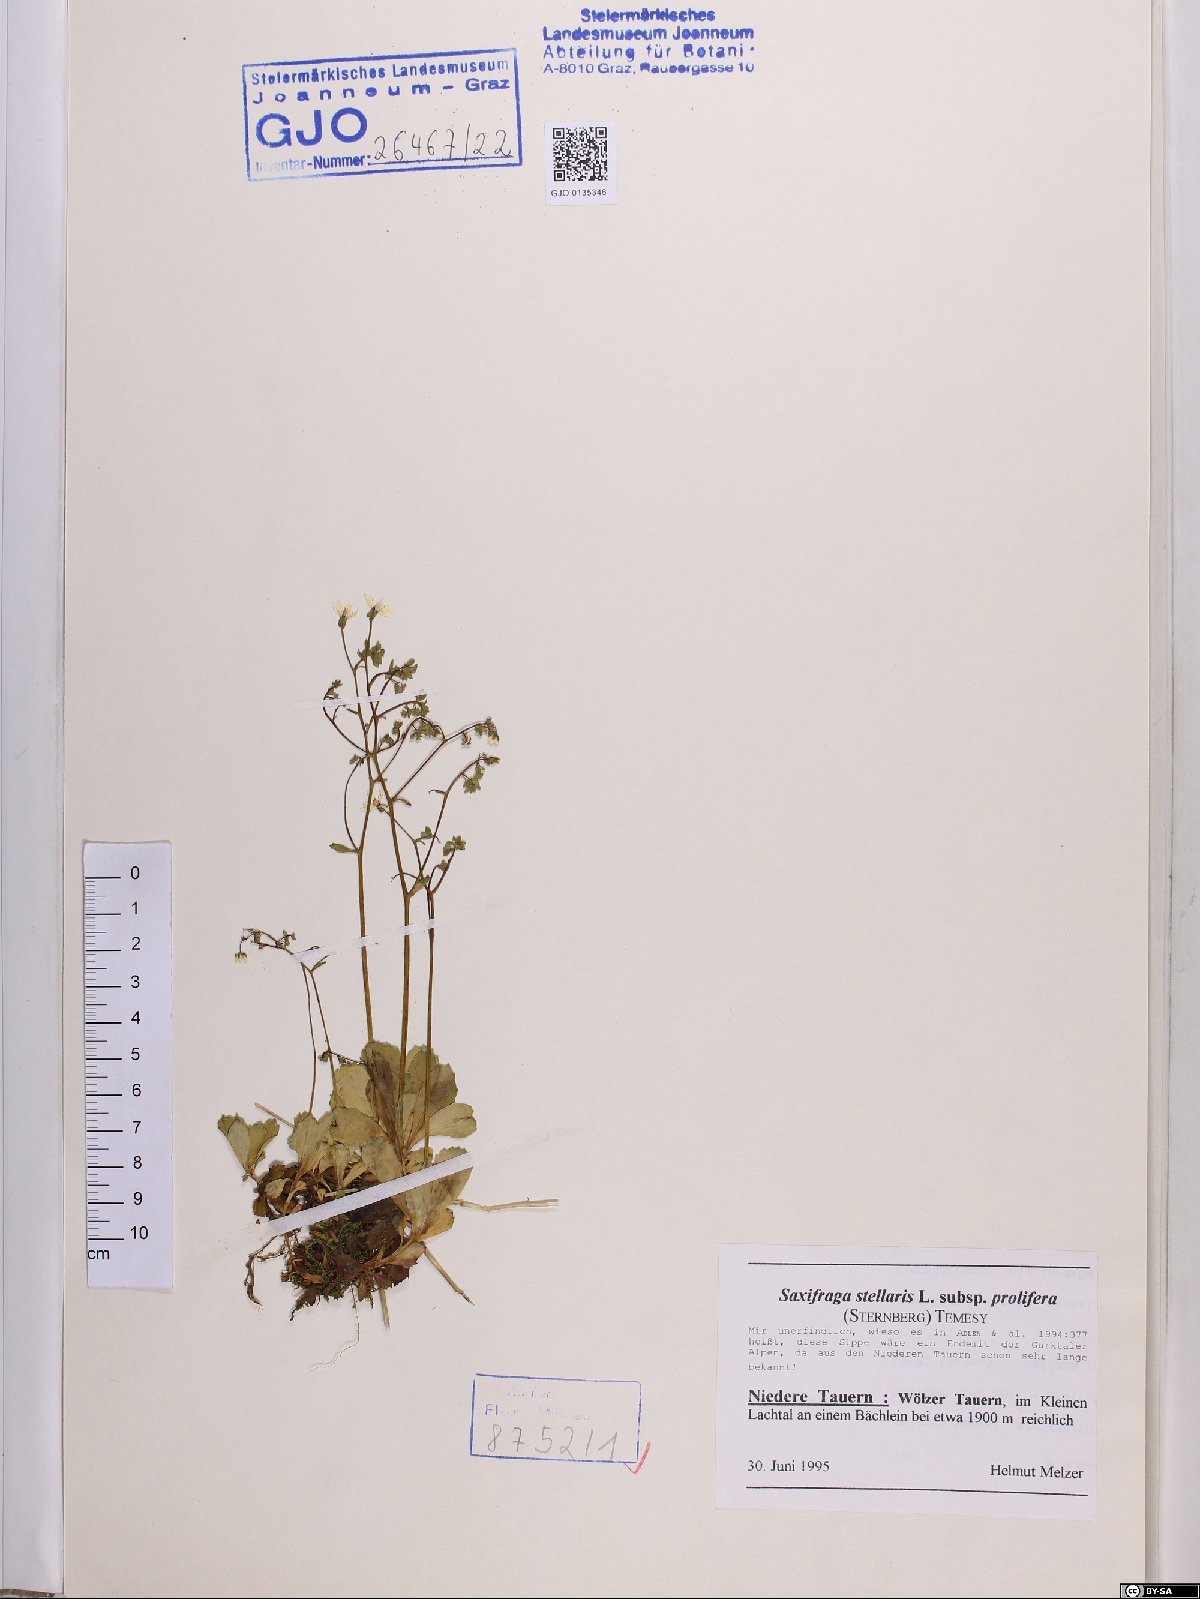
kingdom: Plantae
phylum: Tracheophyta
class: Magnoliopsida
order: Saxifragales
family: Saxifragaceae
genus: Micranthes
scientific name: Micranthes stellaris
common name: Starry saxifrage
